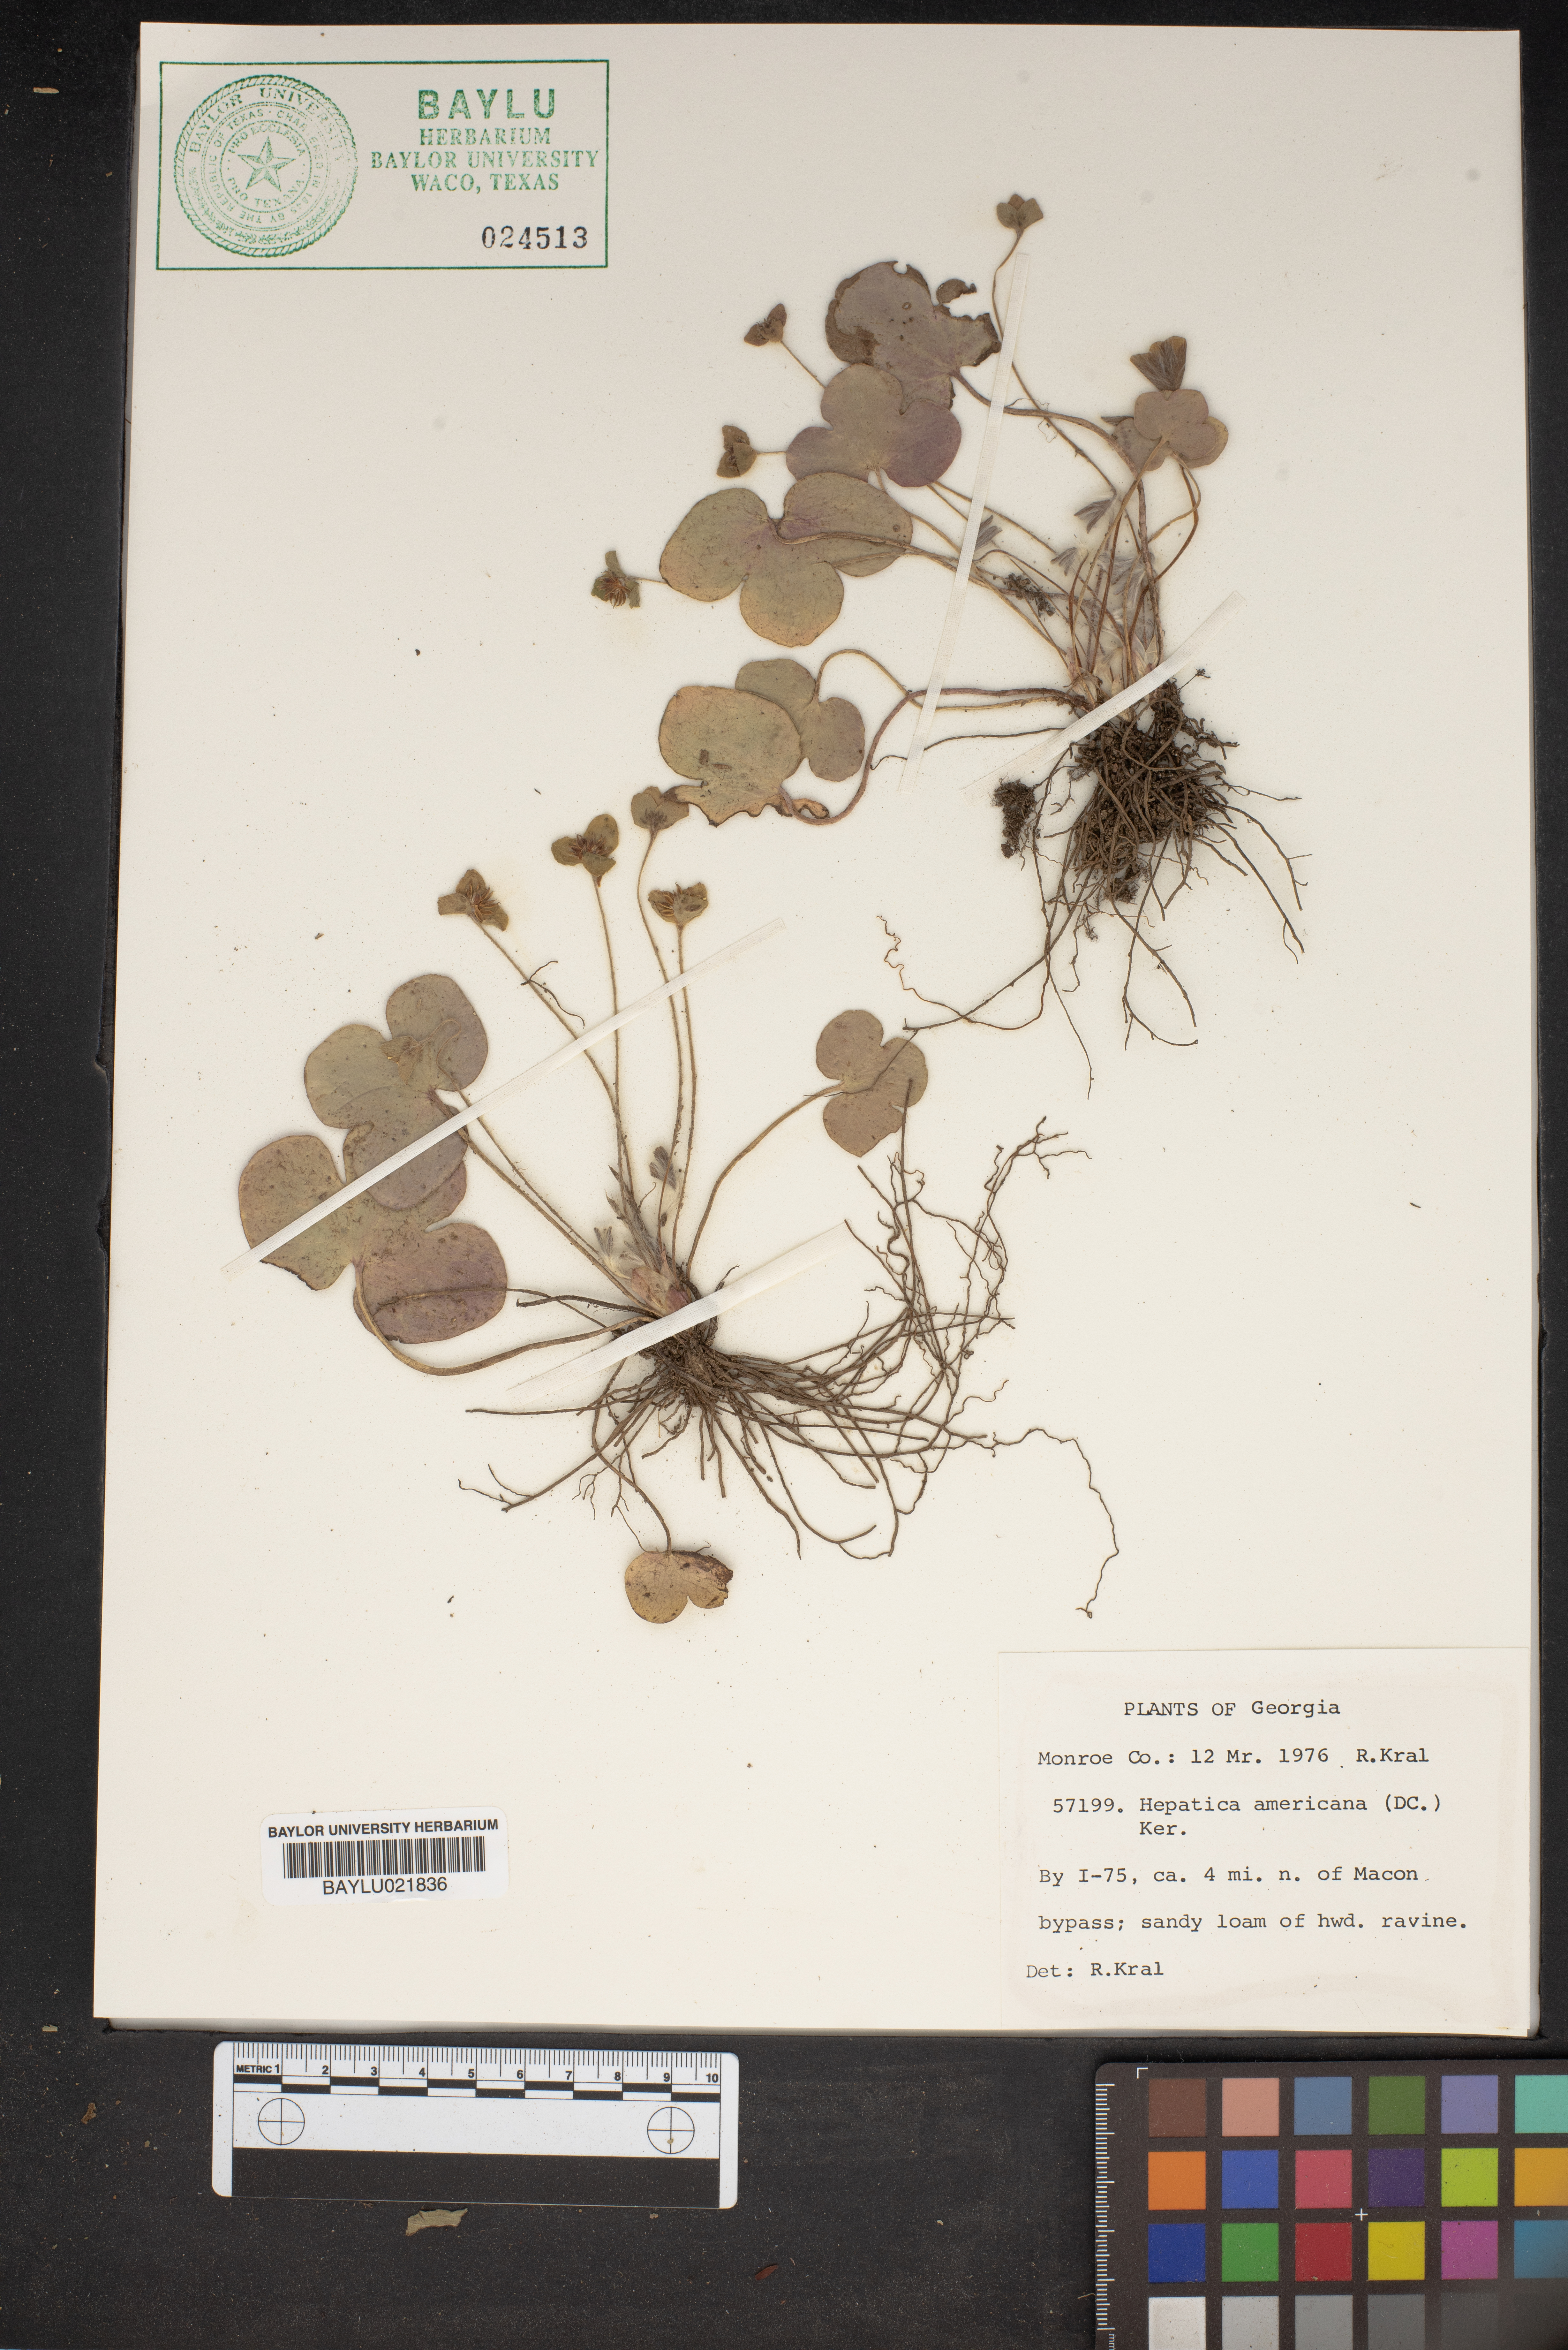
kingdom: Plantae
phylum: Tracheophyta
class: Magnoliopsida
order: Ranunculales
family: Ranunculaceae
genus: Hepatica
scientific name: Hepatica americana
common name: American hepatica
